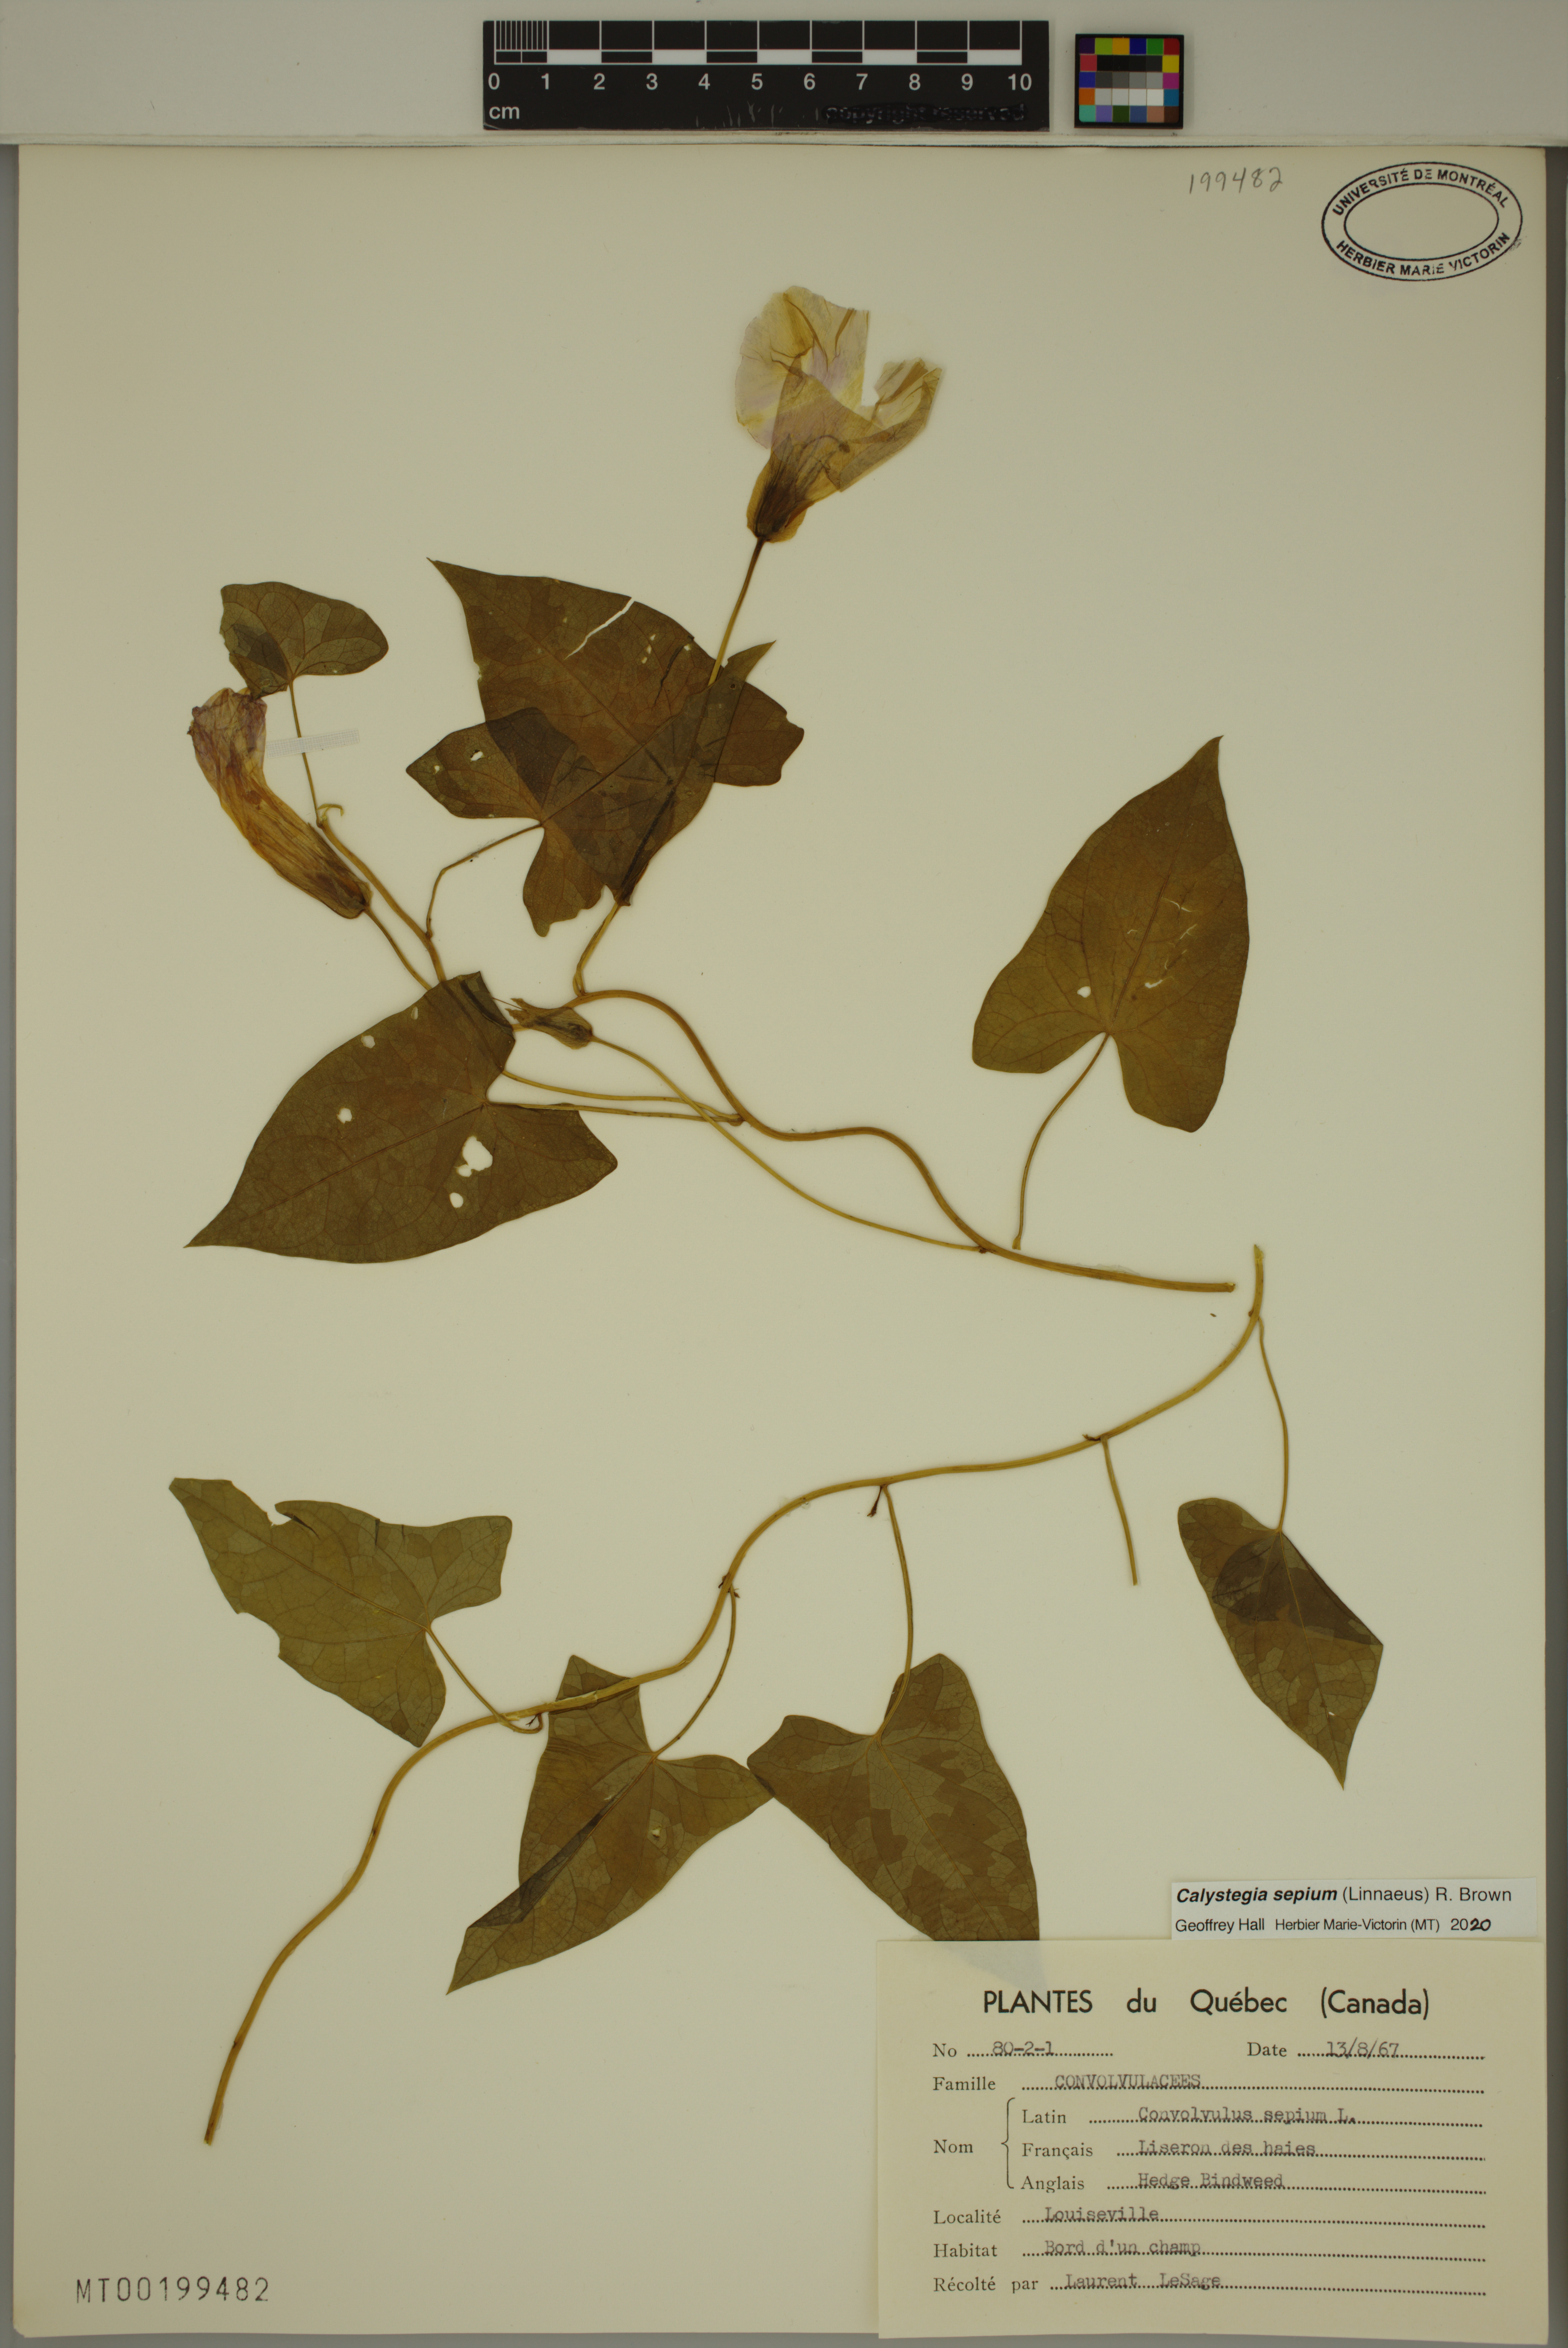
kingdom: Plantae
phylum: Tracheophyta
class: Magnoliopsida
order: Solanales
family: Convolvulaceae
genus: Calystegia
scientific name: Calystegia sepium
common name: Hedge bindweed
